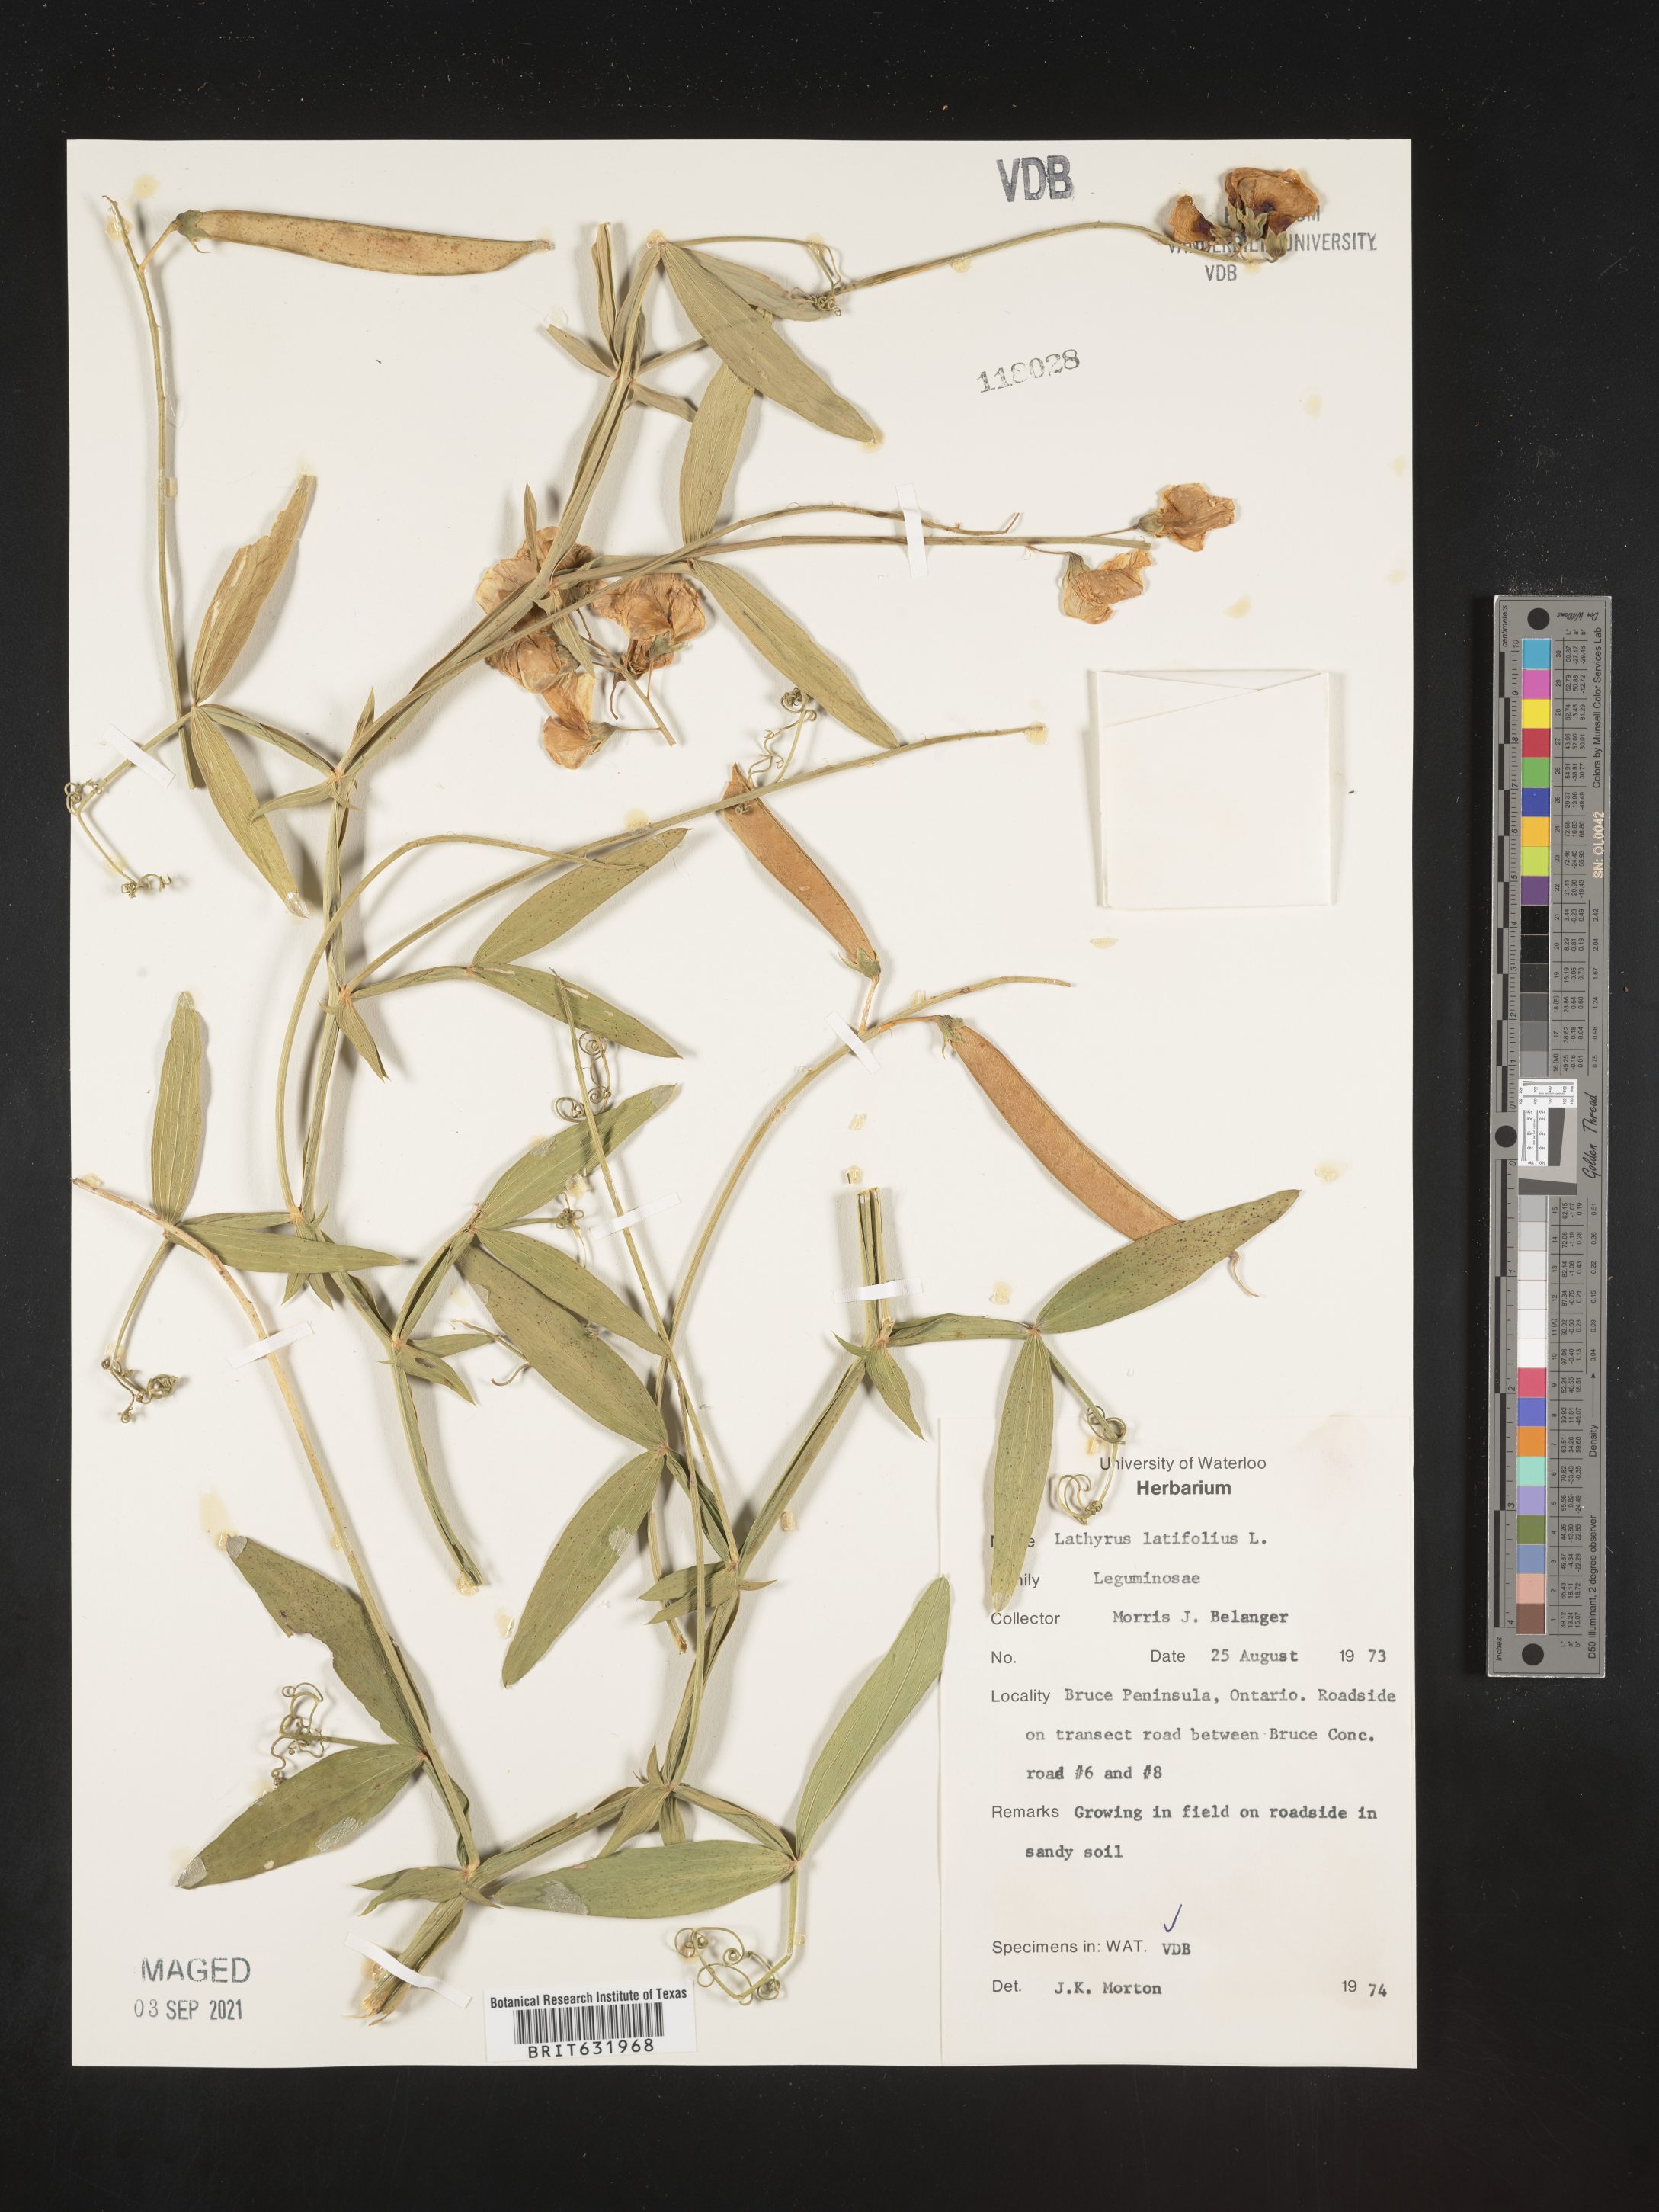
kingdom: Plantae
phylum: Tracheophyta
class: Magnoliopsida
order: Fabales
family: Fabaceae
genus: Lathyrus
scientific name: Lathyrus
